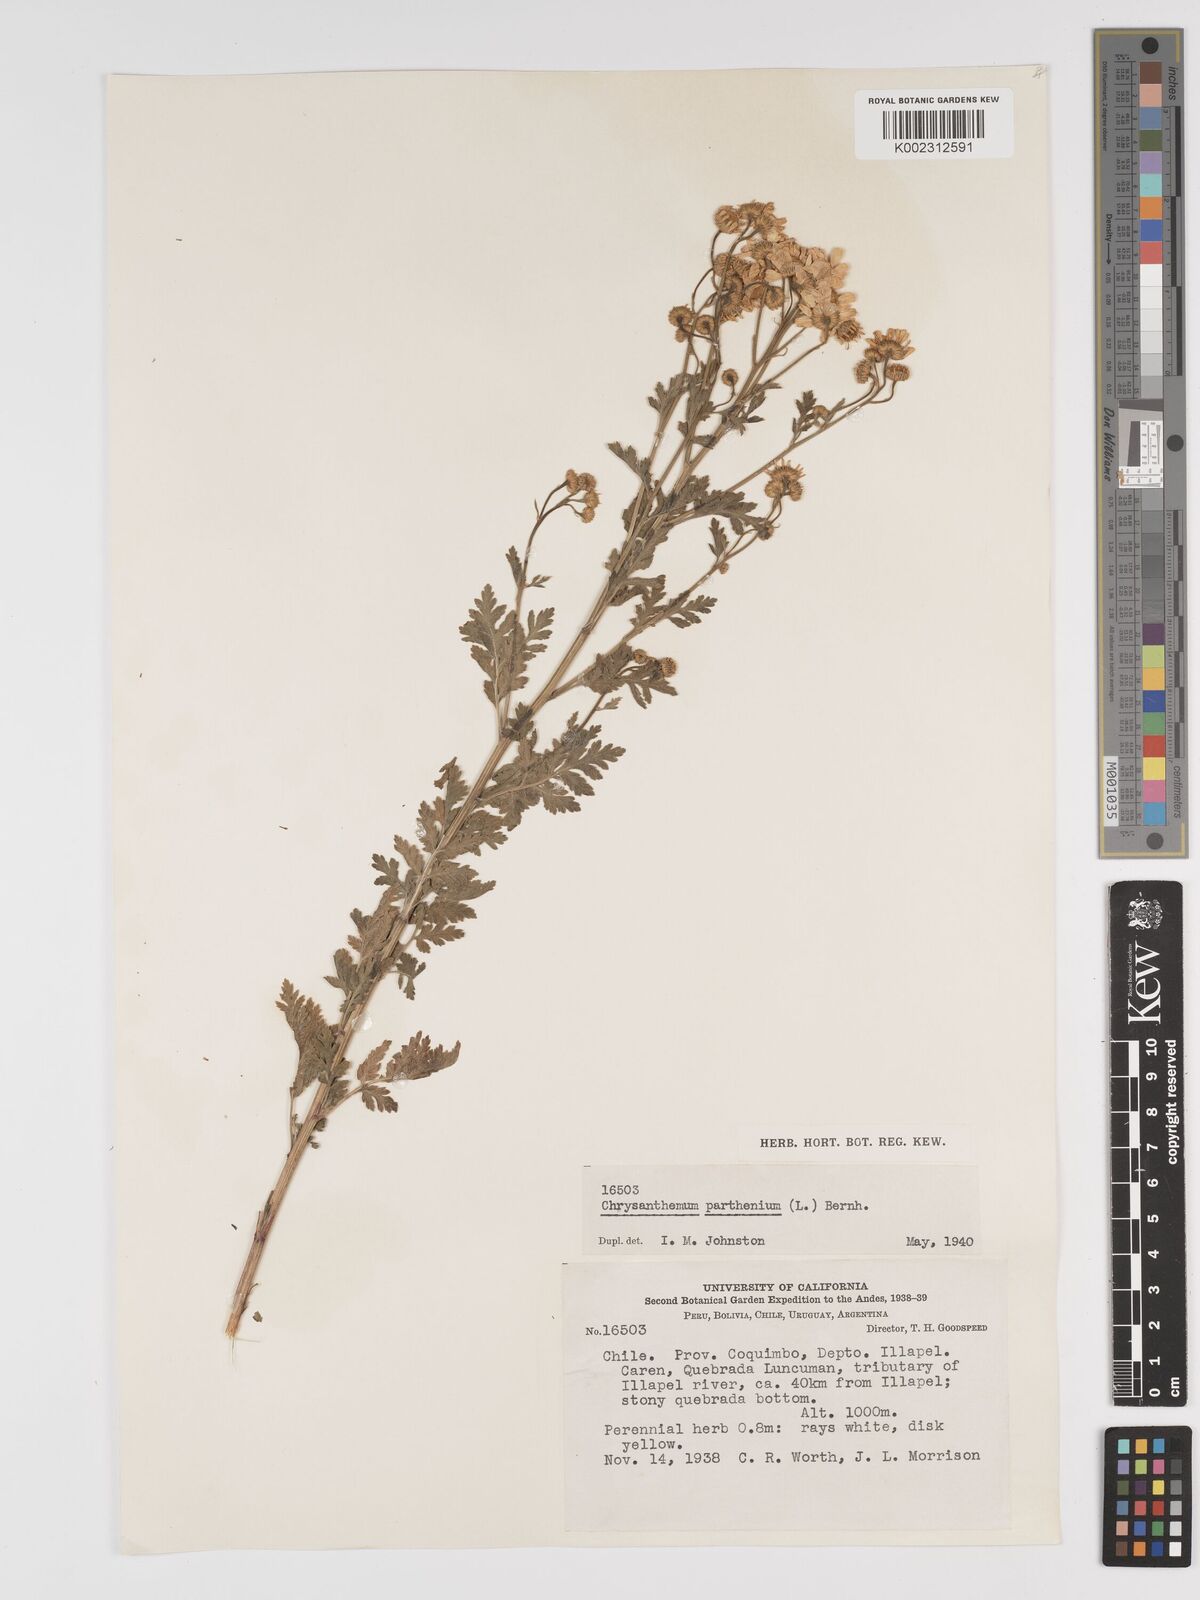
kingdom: Plantae
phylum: Tracheophyta
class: Magnoliopsida
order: Asterales
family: Asteraceae
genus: Tanacetum
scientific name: Tanacetum parthenium
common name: Feverfew
